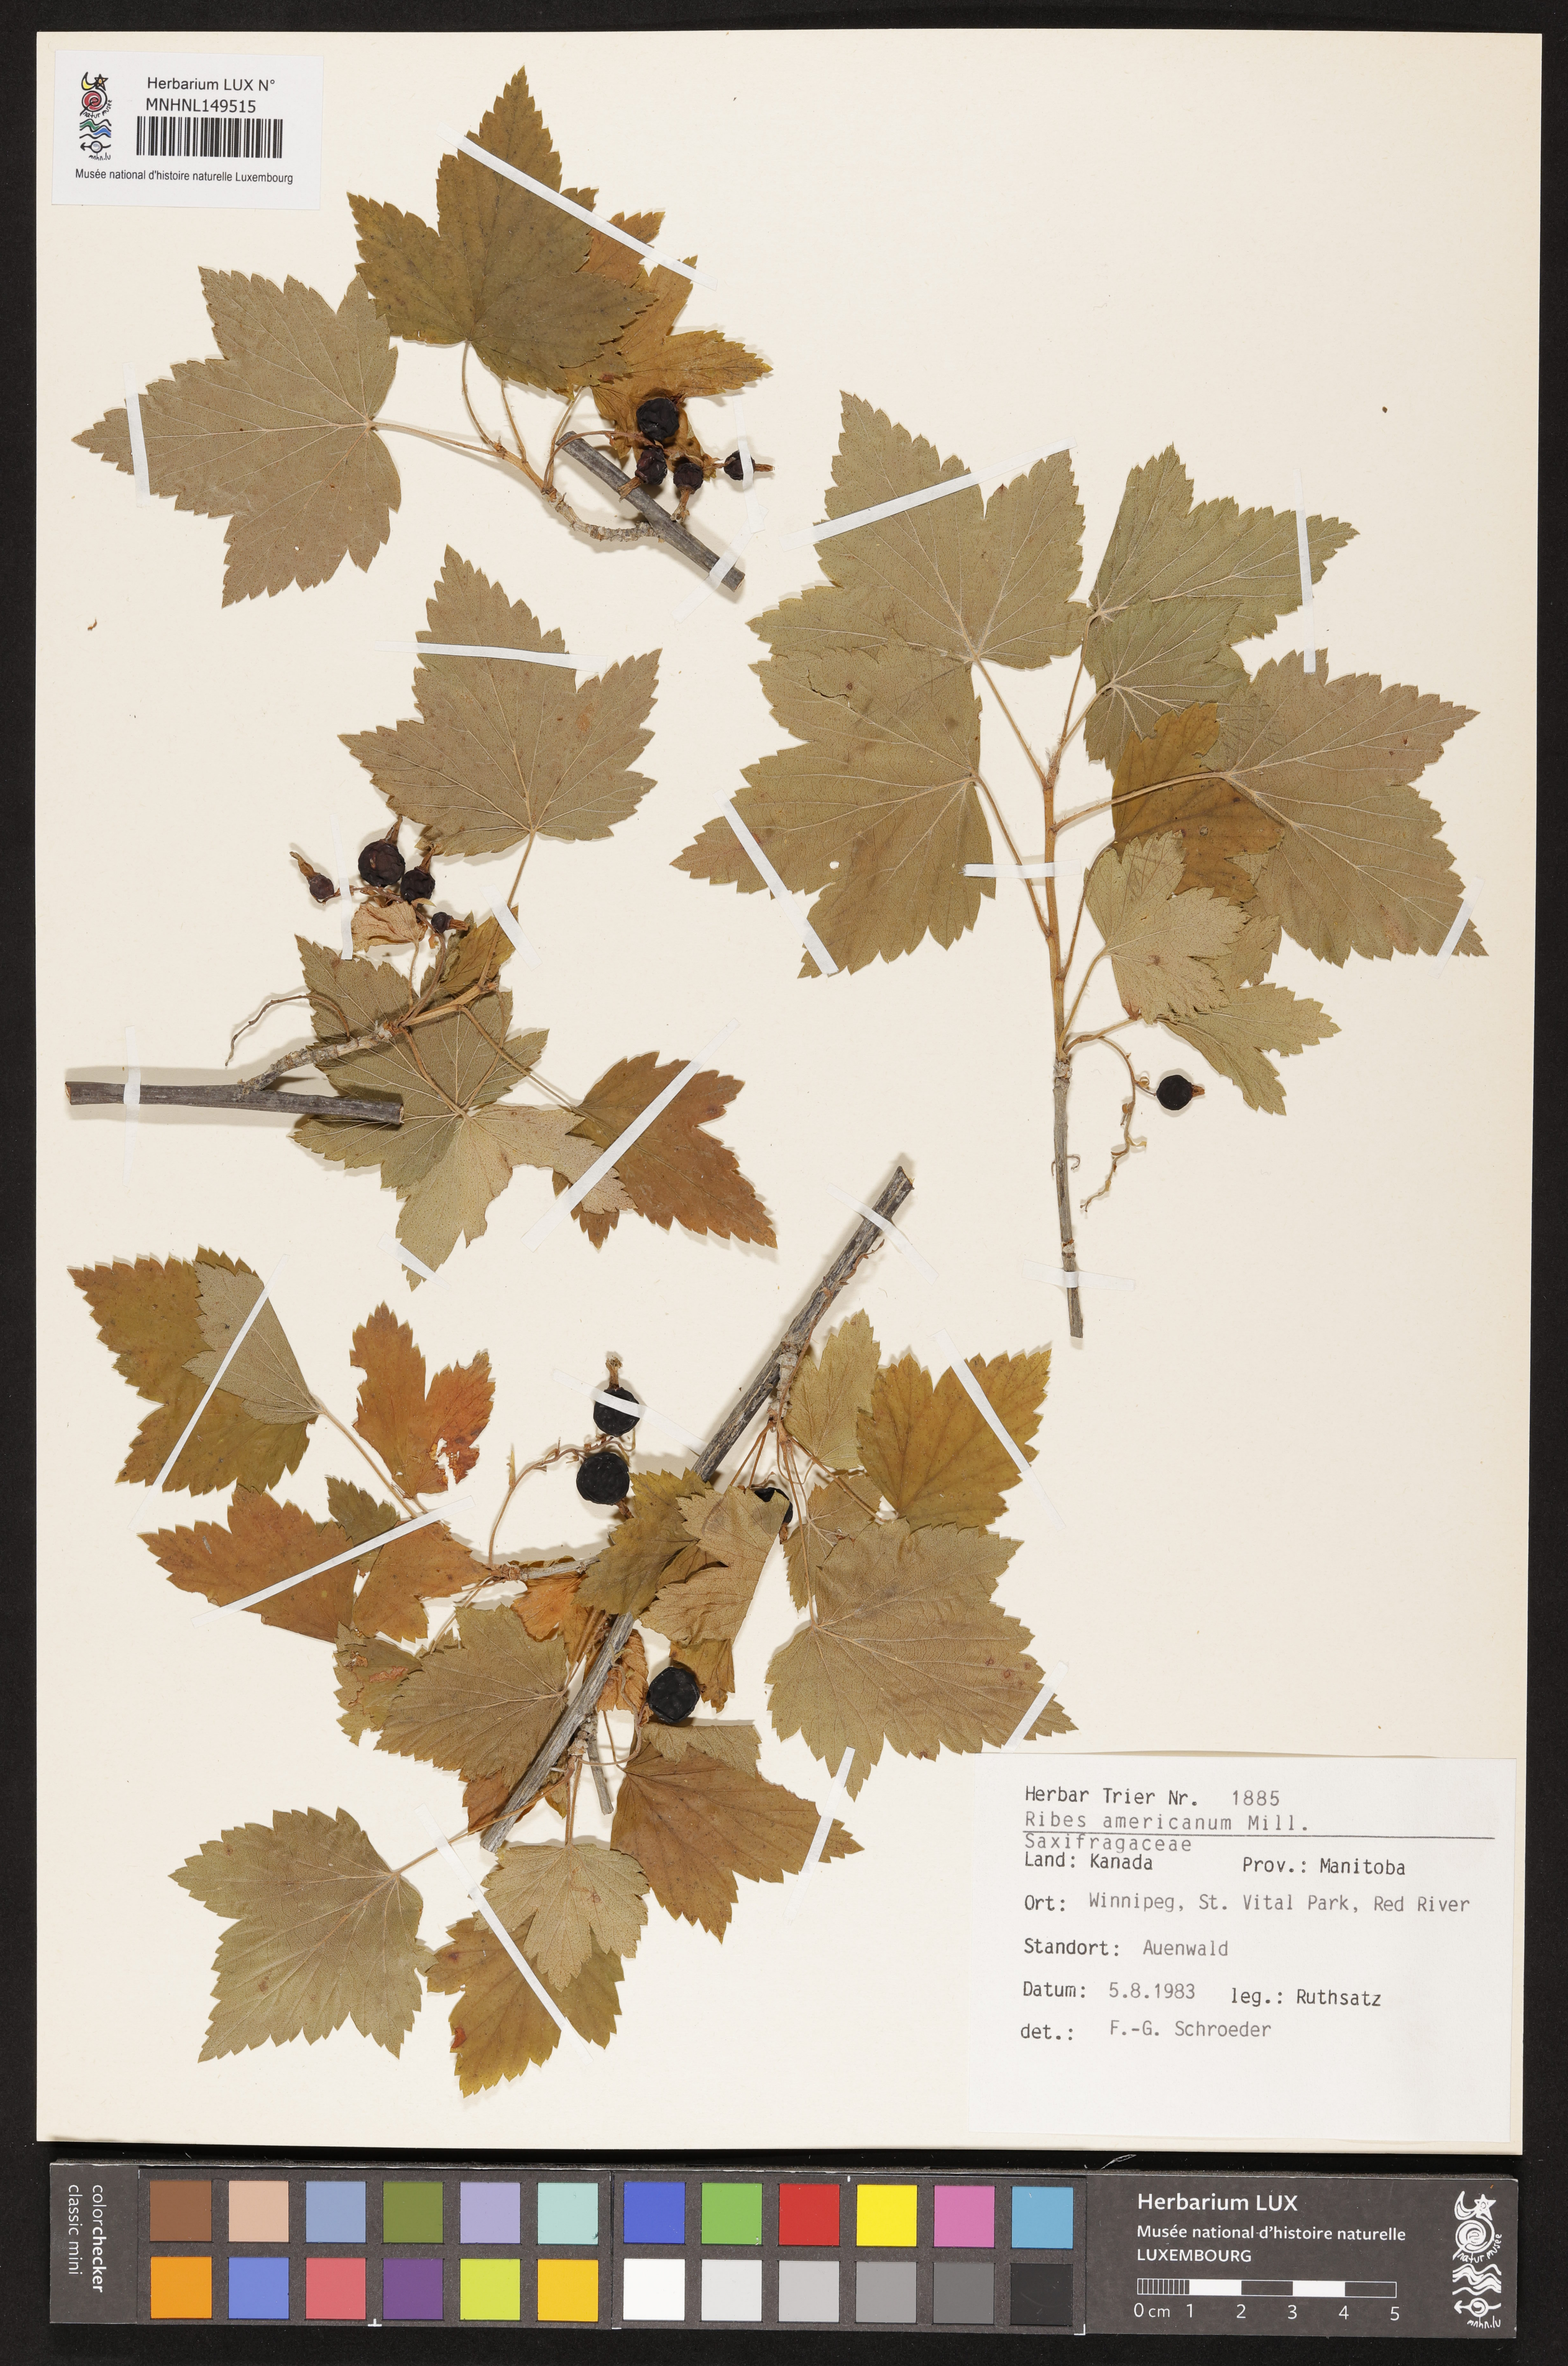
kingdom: Plantae
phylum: Tracheophyta
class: Magnoliopsida
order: Saxifragales
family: Grossulariaceae
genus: Ribes
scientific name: Ribes americanum
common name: American black currant
